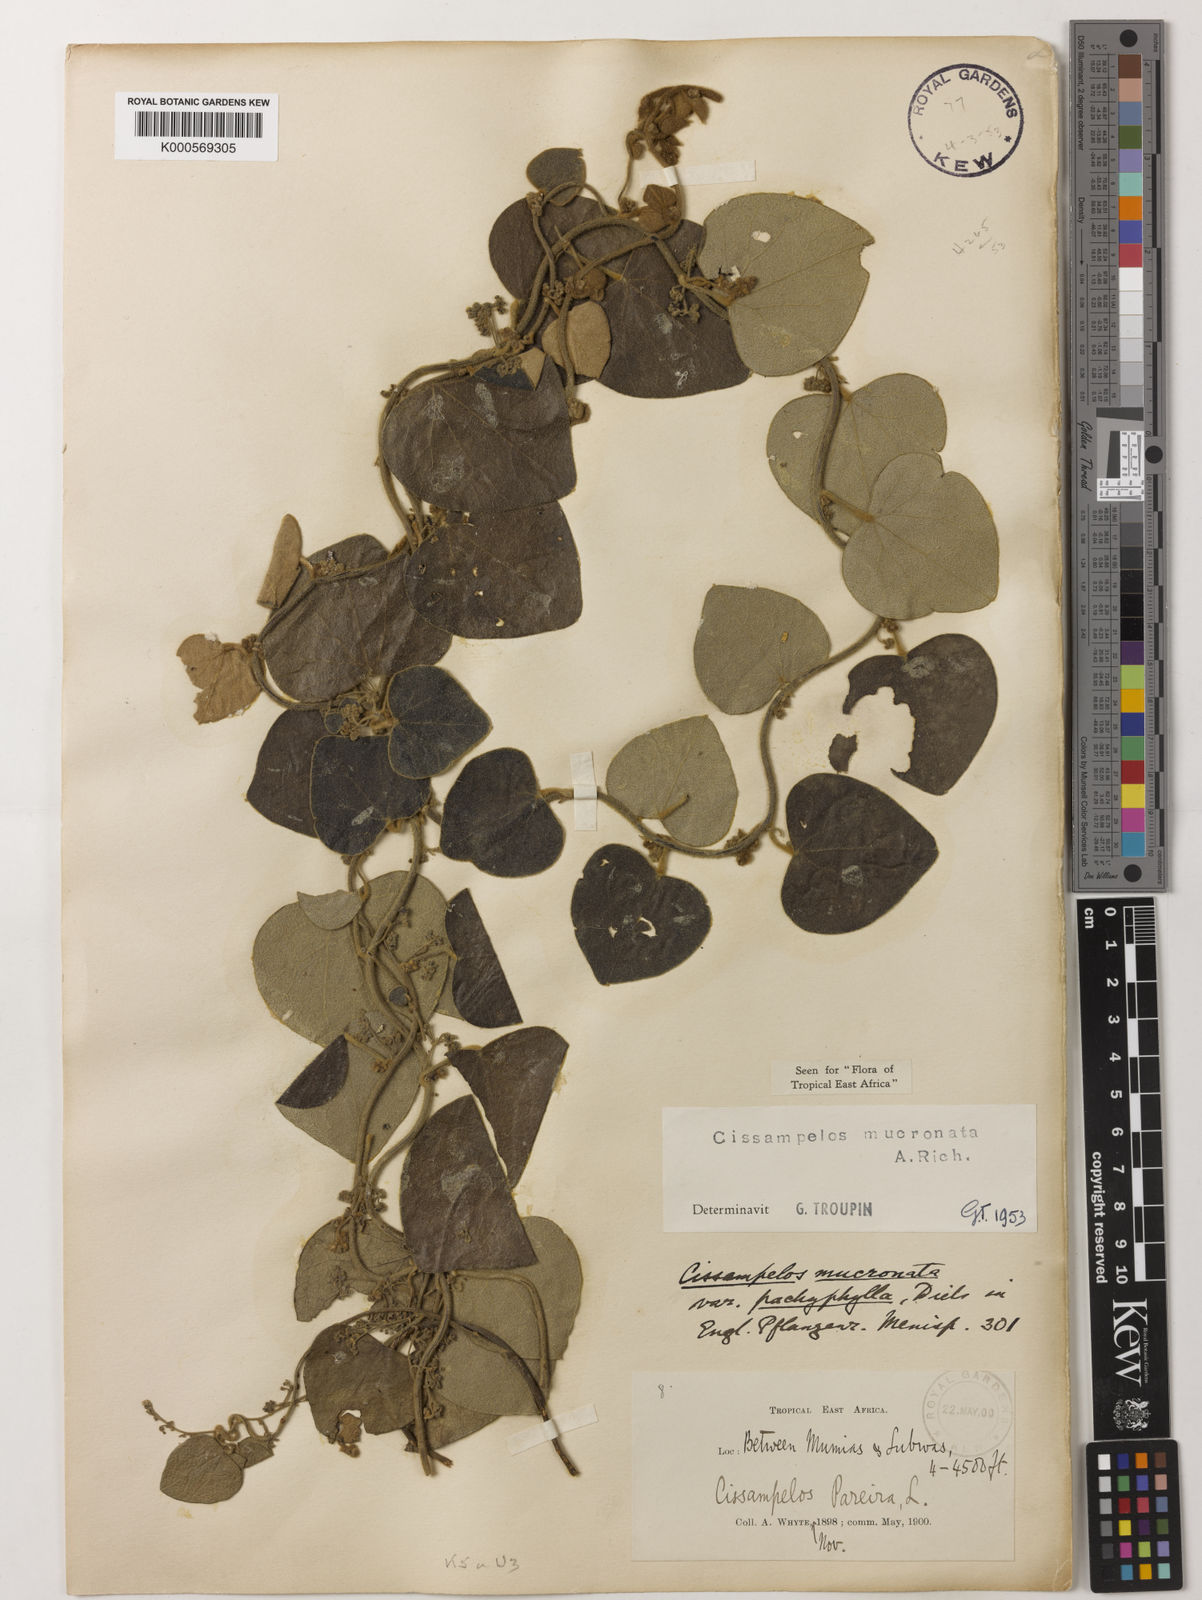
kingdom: Plantae
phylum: Tracheophyta
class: Magnoliopsida
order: Ranunculales
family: Menispermaceae
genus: Cissampelos
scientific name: Cissampelos mucronata
